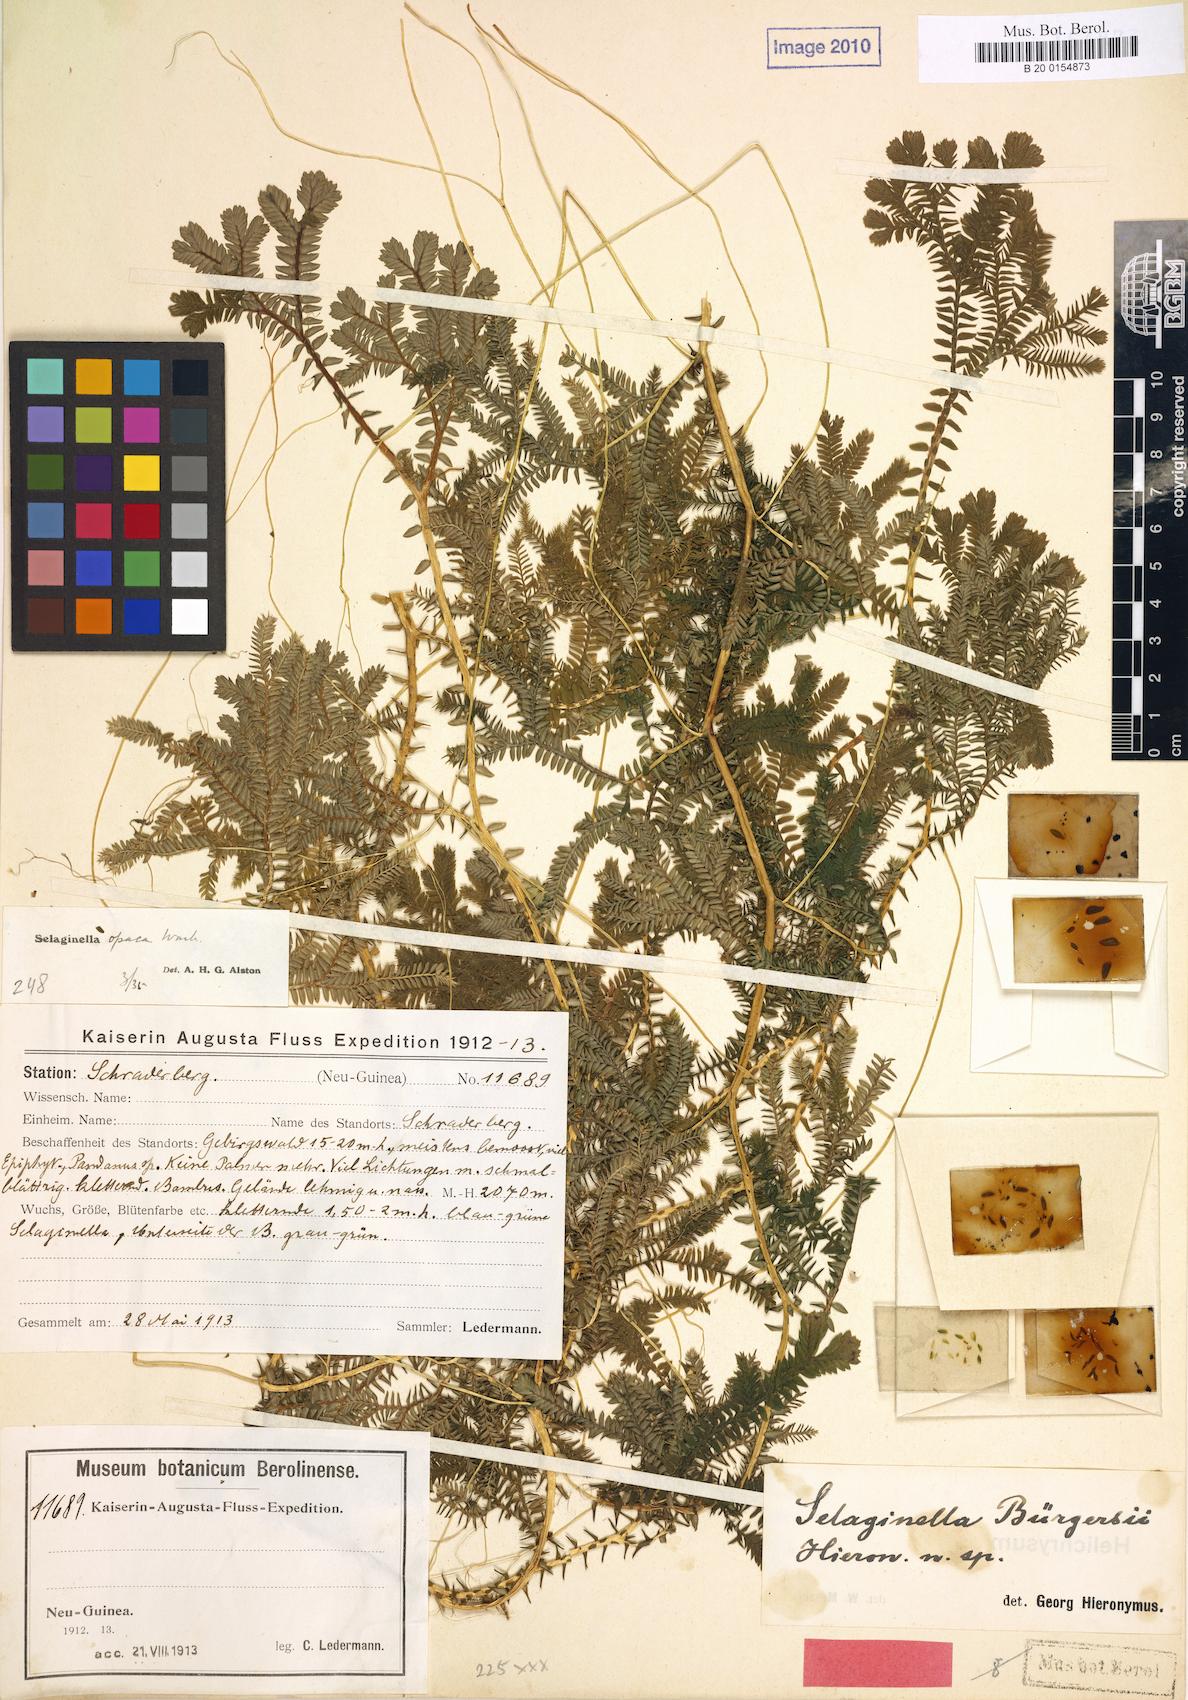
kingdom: Plantae
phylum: Tracheophyta
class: Lycopodiopsida
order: Selaginellales
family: Selaginellaceae
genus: Selaginella
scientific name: Selaginella buergersiana
